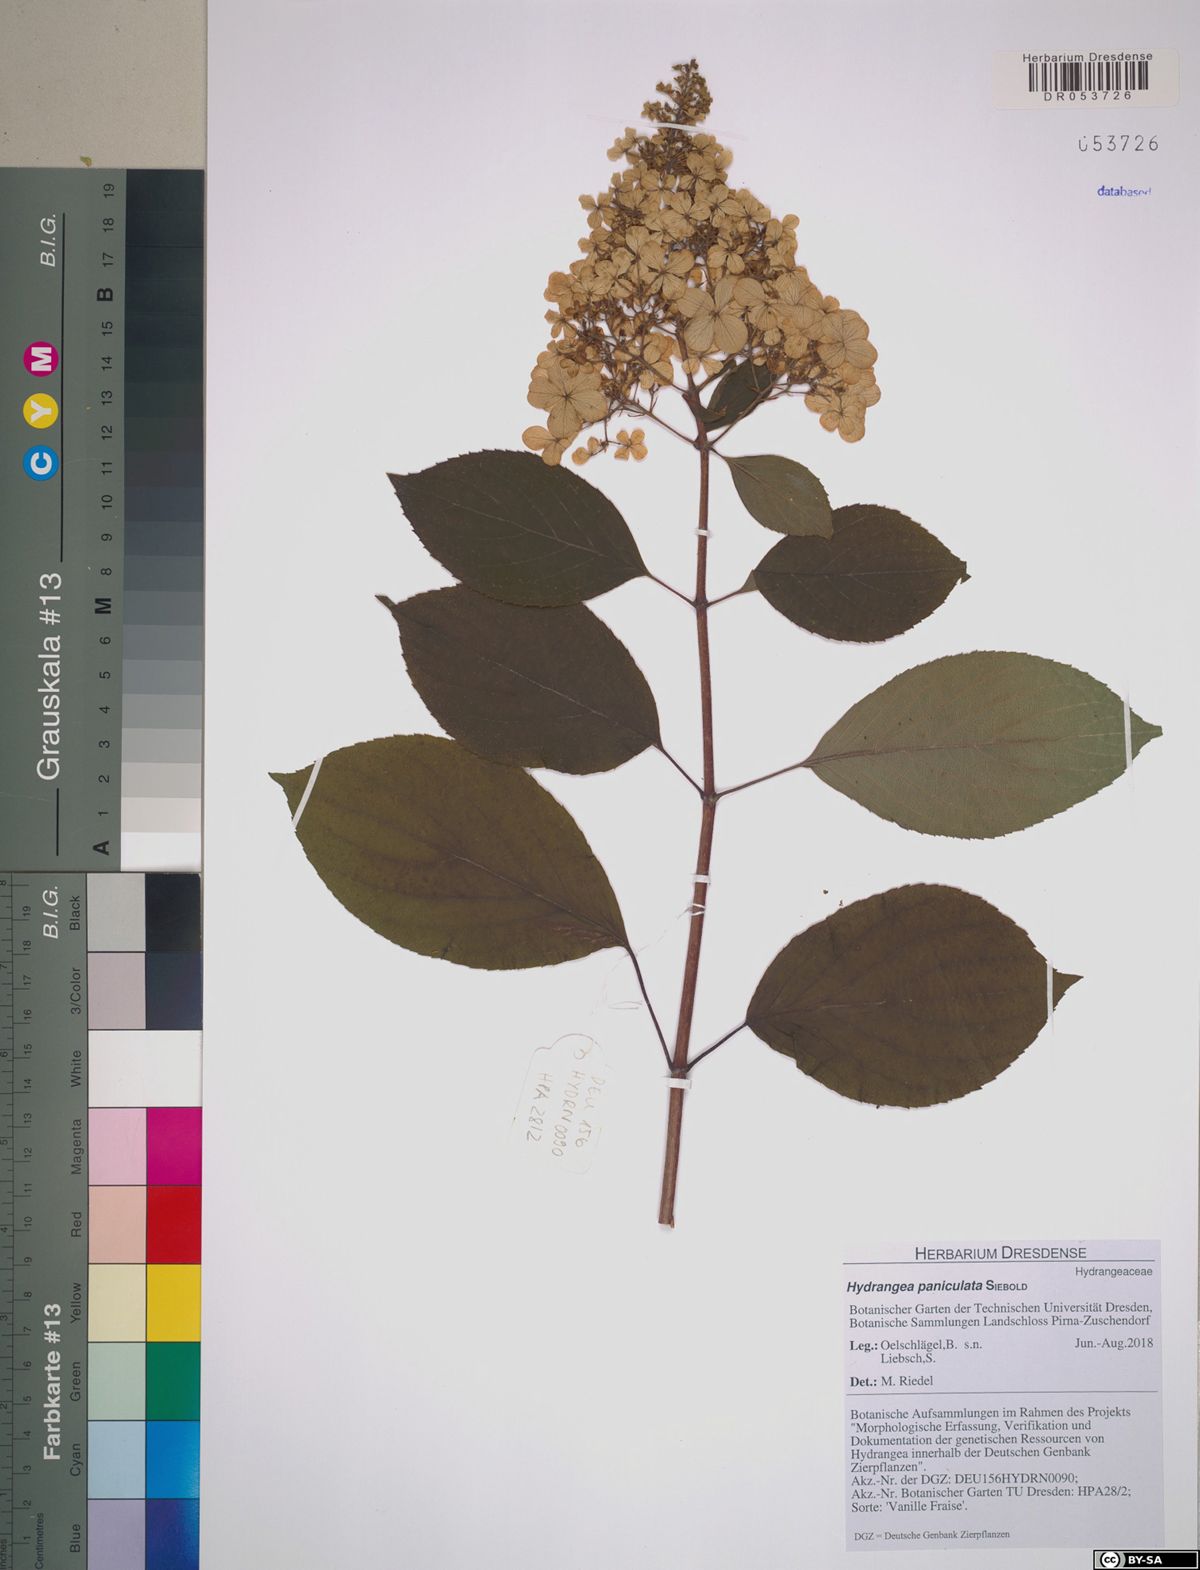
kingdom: Plantae
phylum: Tracheophyta
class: Magnoliopsida
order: Cornales
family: Hydrangeaceae
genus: Hydrangea
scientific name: Hydrangea paniculata
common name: Panicled hydrangea
